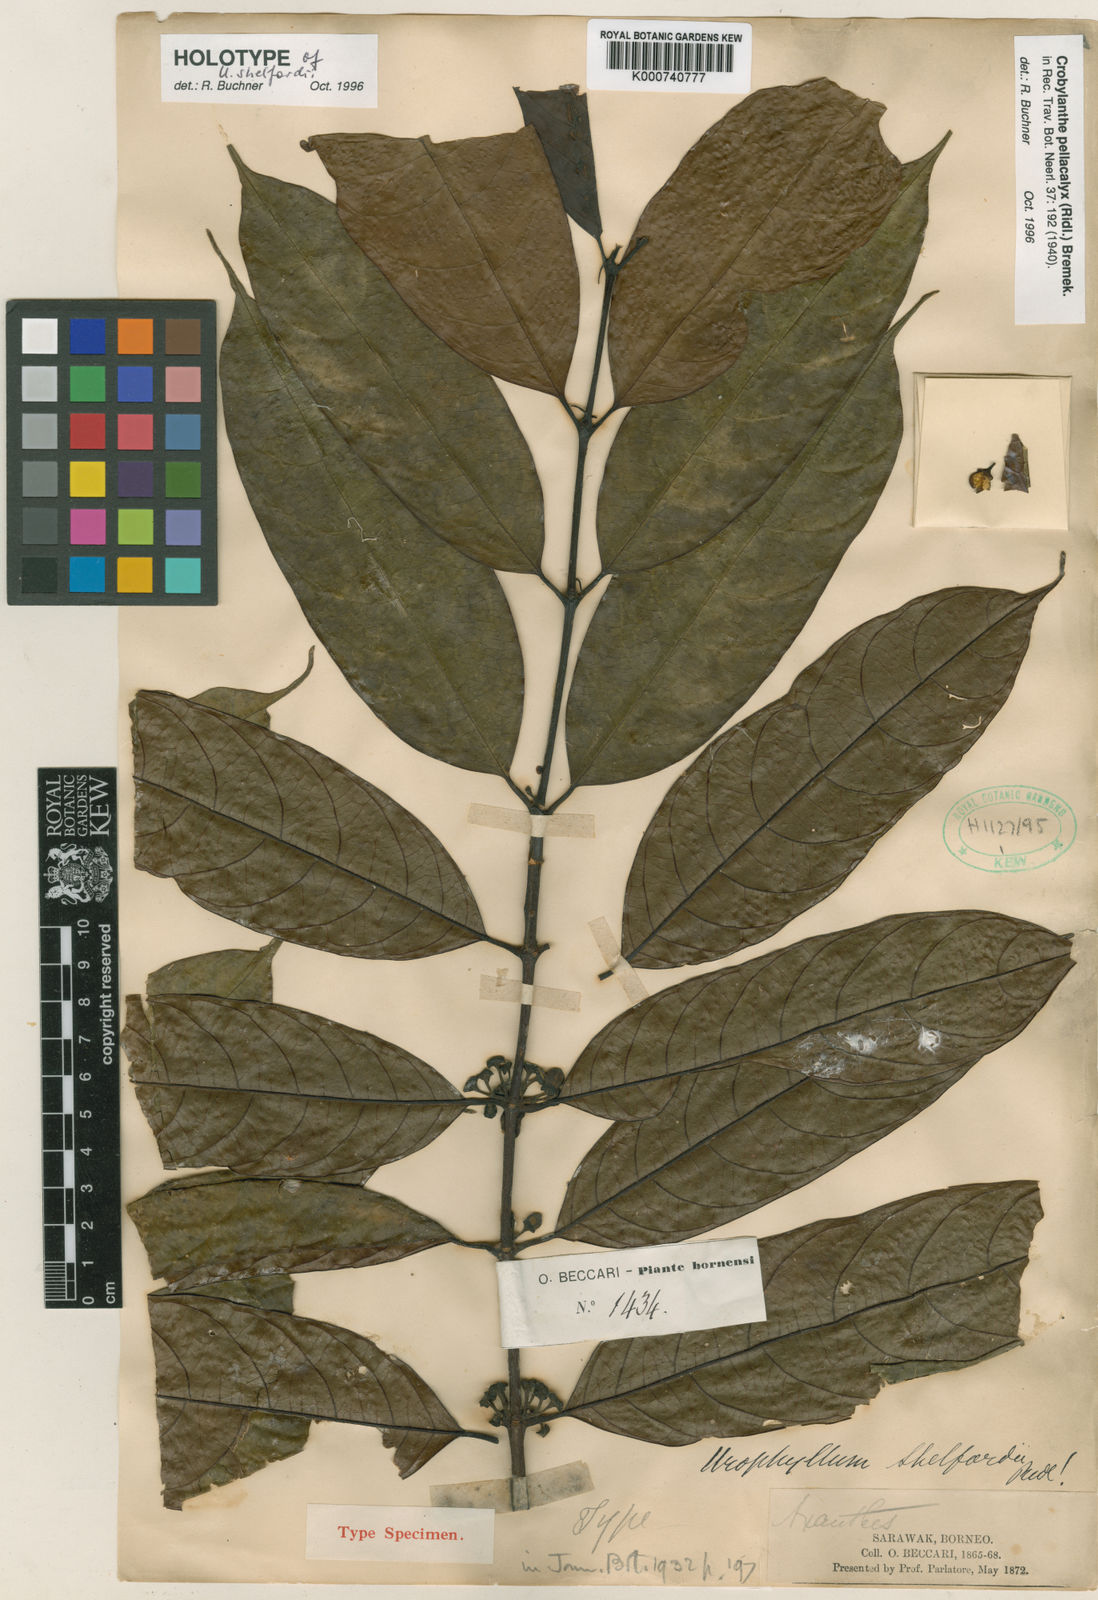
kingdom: Plantae
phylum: Tracheophyta
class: Magnoliopsida
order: Gentianales
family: Rubiaceae
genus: Crobylanthe
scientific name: Crobylanthe pellacalyx
